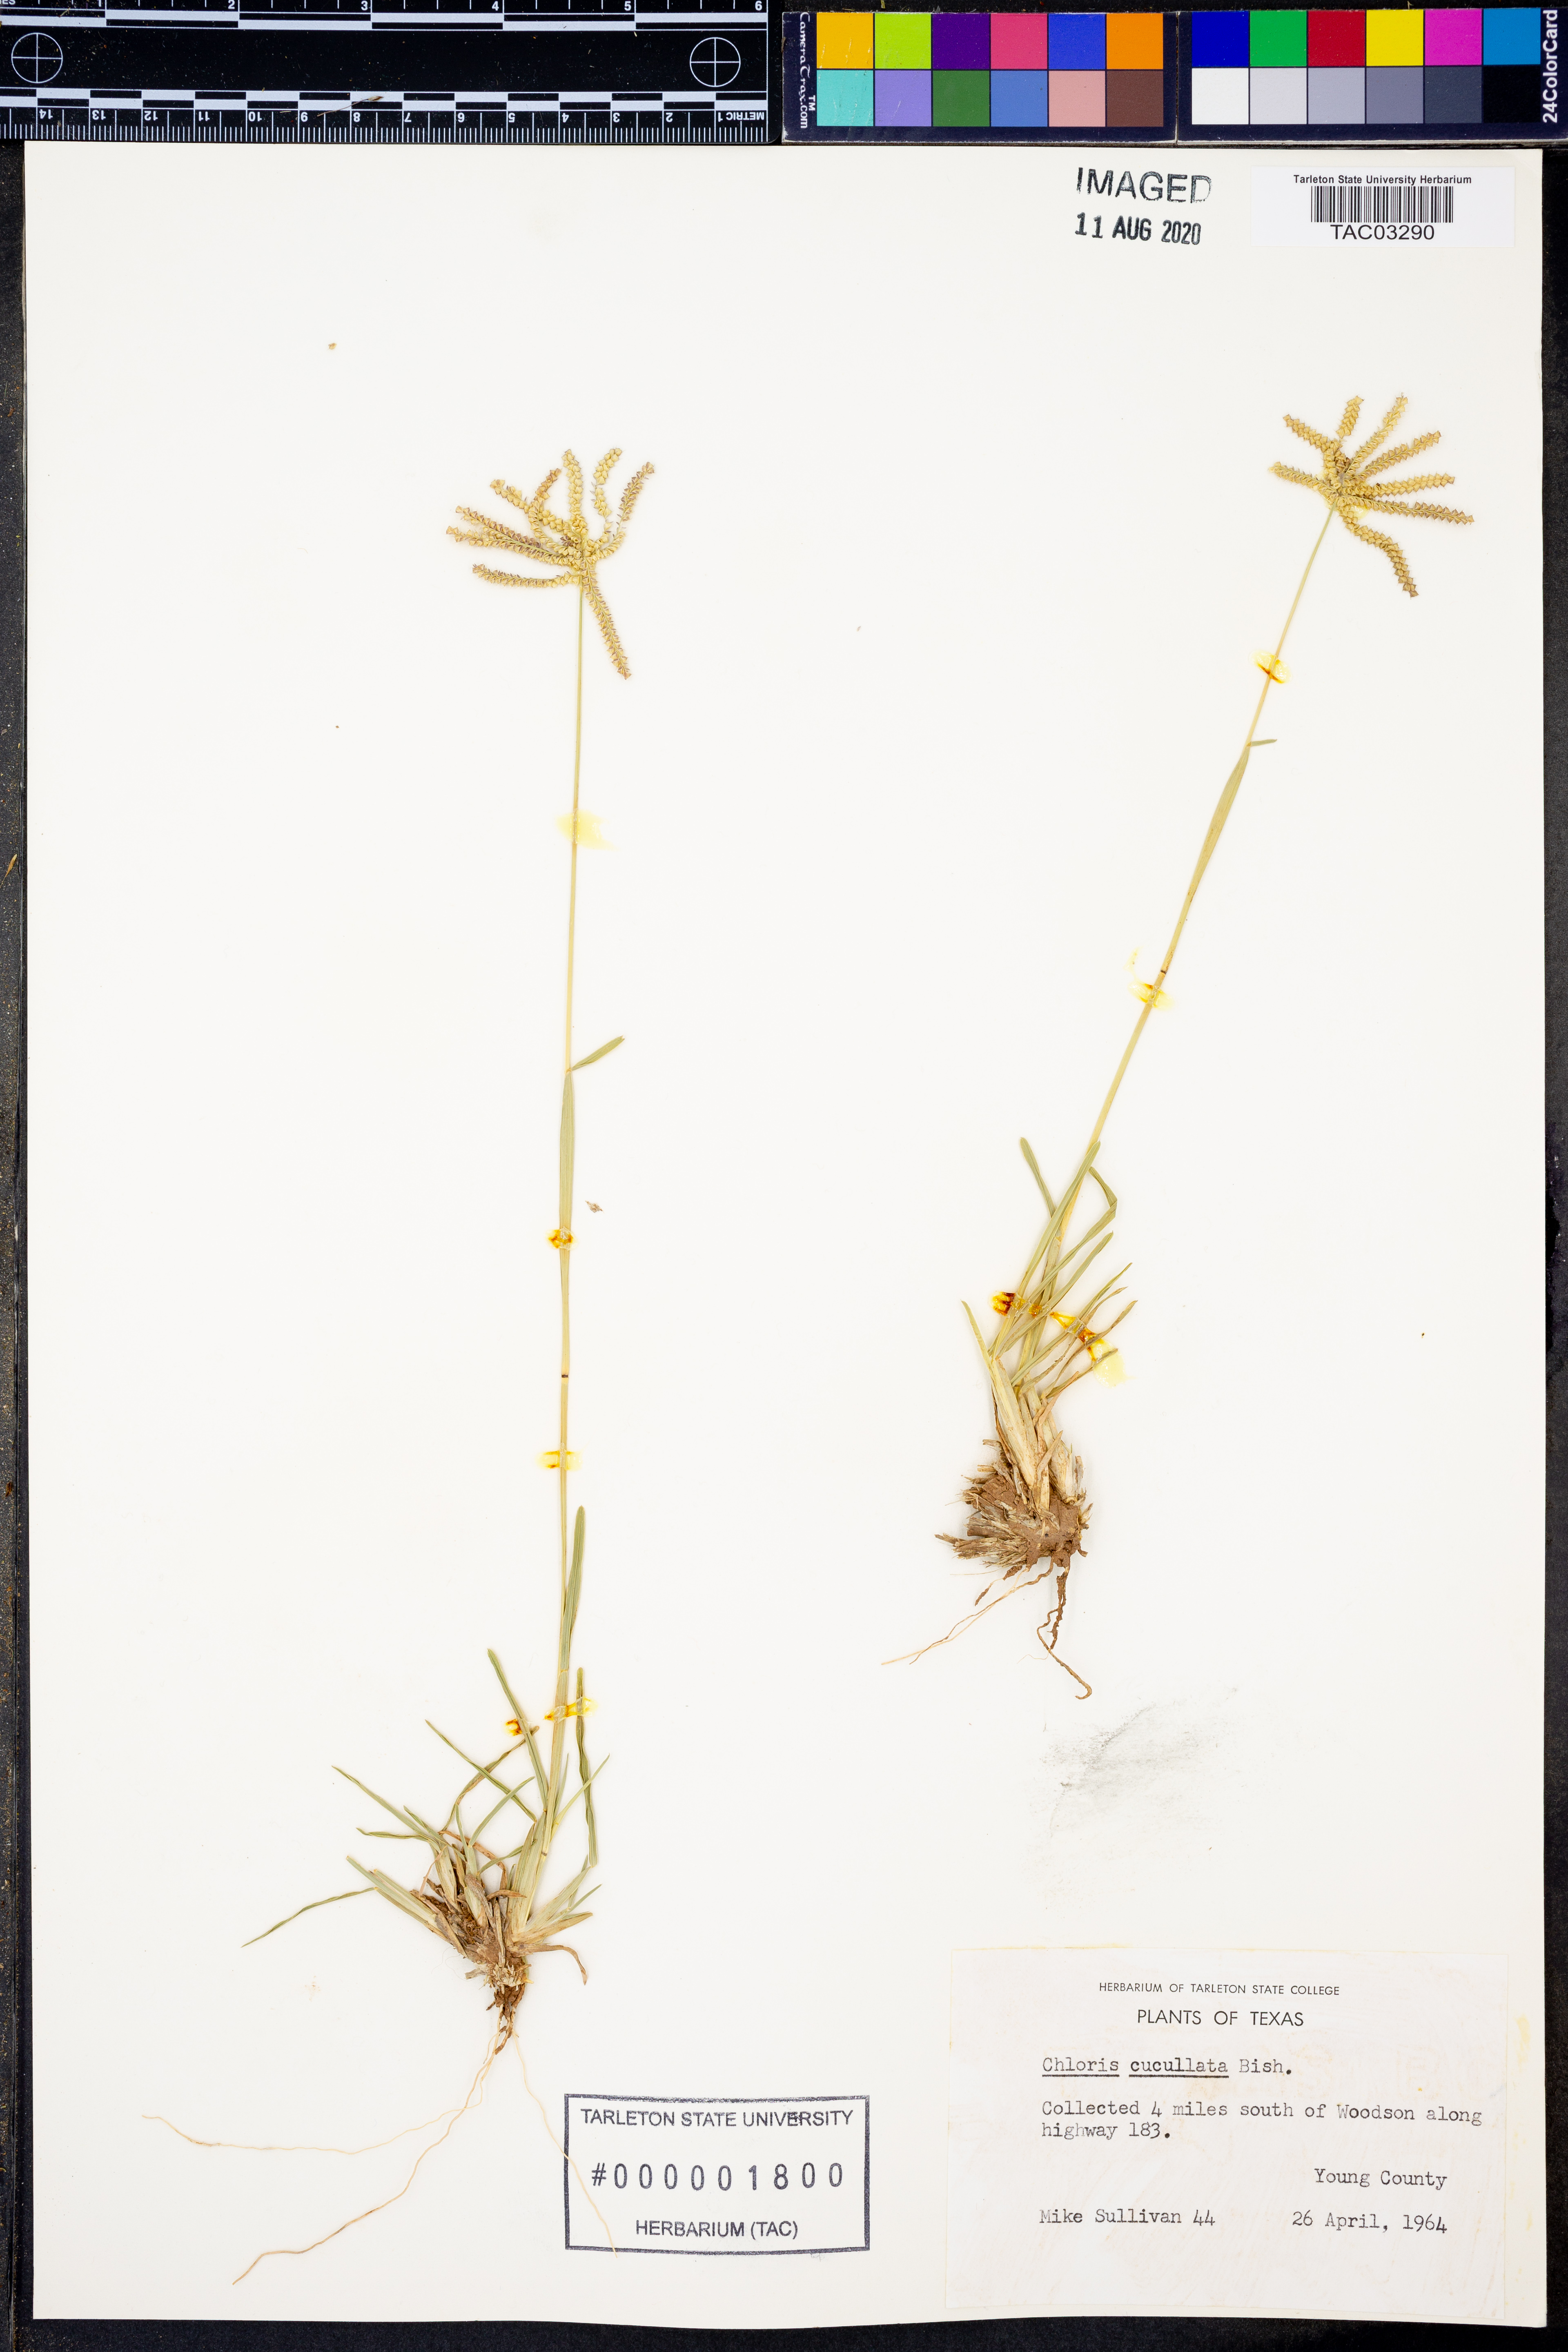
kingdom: Plantae
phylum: Tracheophyta
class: Liliopsida
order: Poales
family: Poaceae
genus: Chloris
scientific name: Chloris cucullata
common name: Hooded windmill grass
